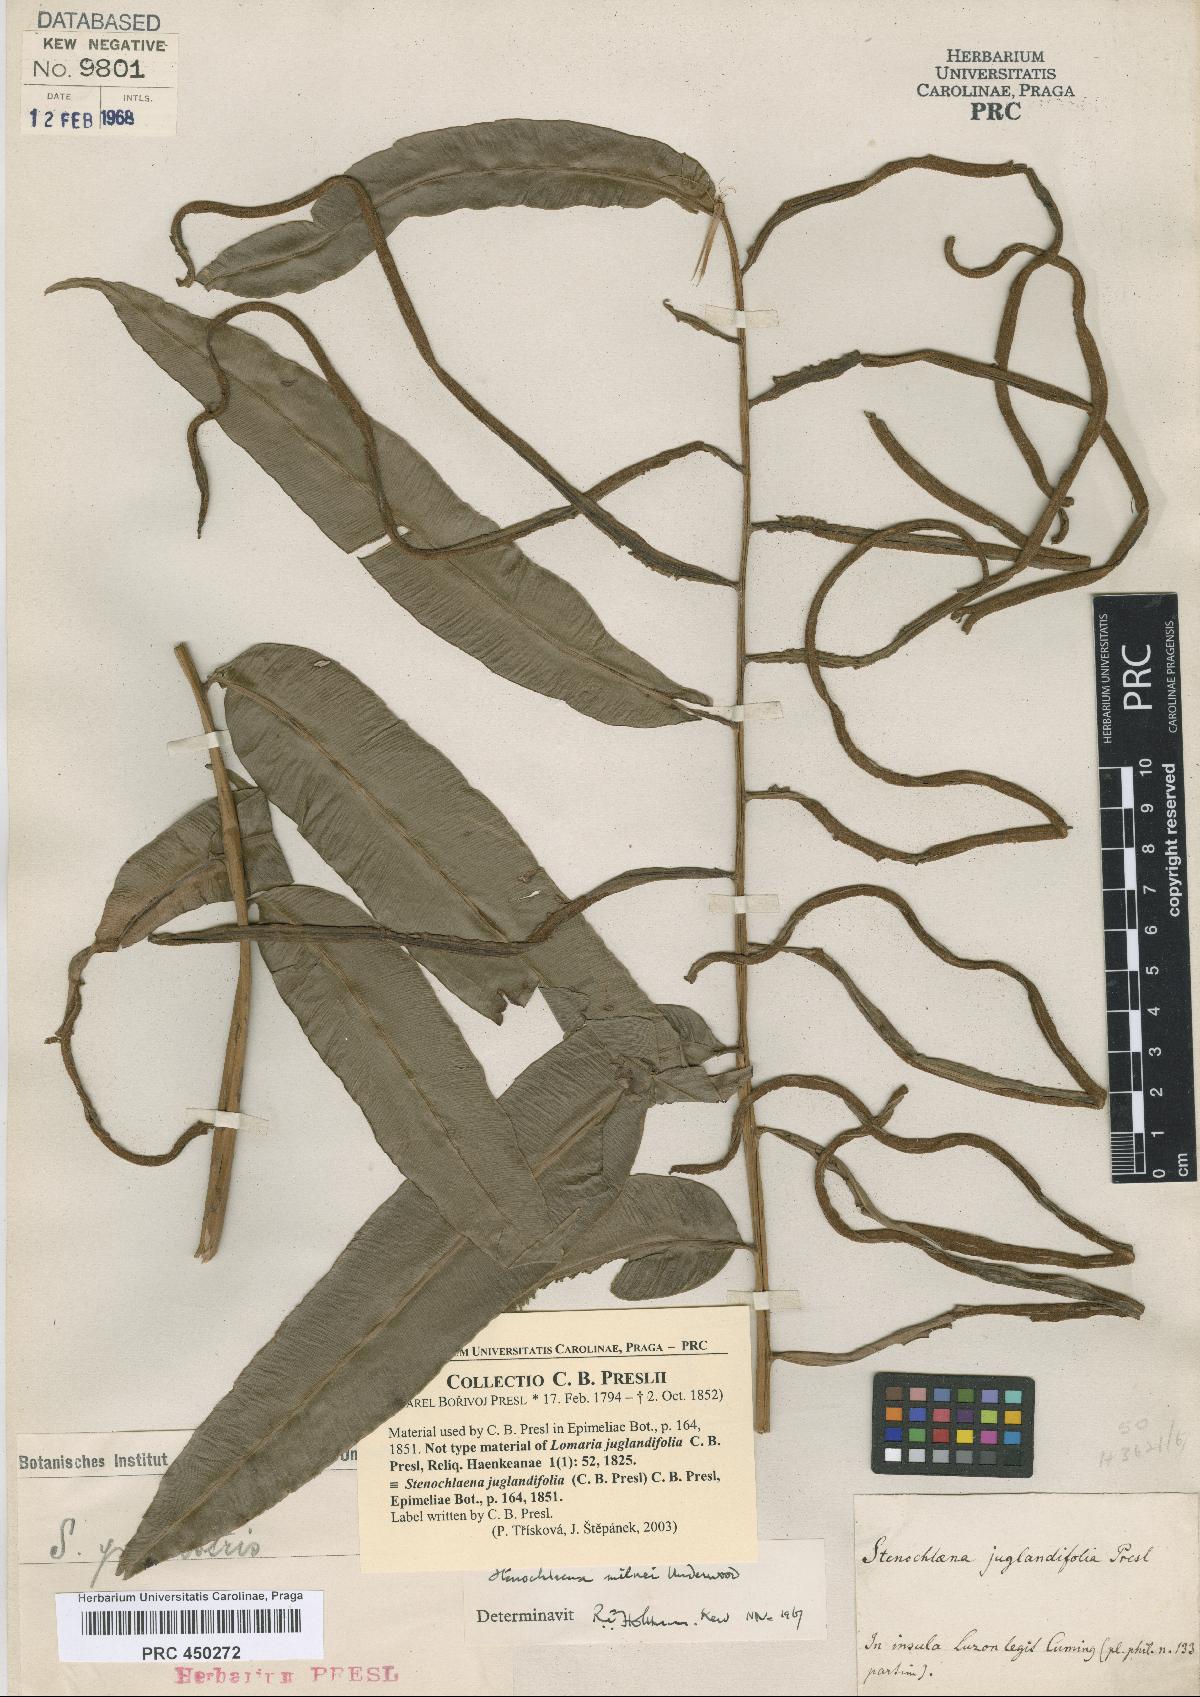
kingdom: Plantae
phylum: Tracheophyta
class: Polypodiopsida
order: Polypodiales
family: Blechnaceae
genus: Stenochlaena
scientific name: Stenochlaena palustris
